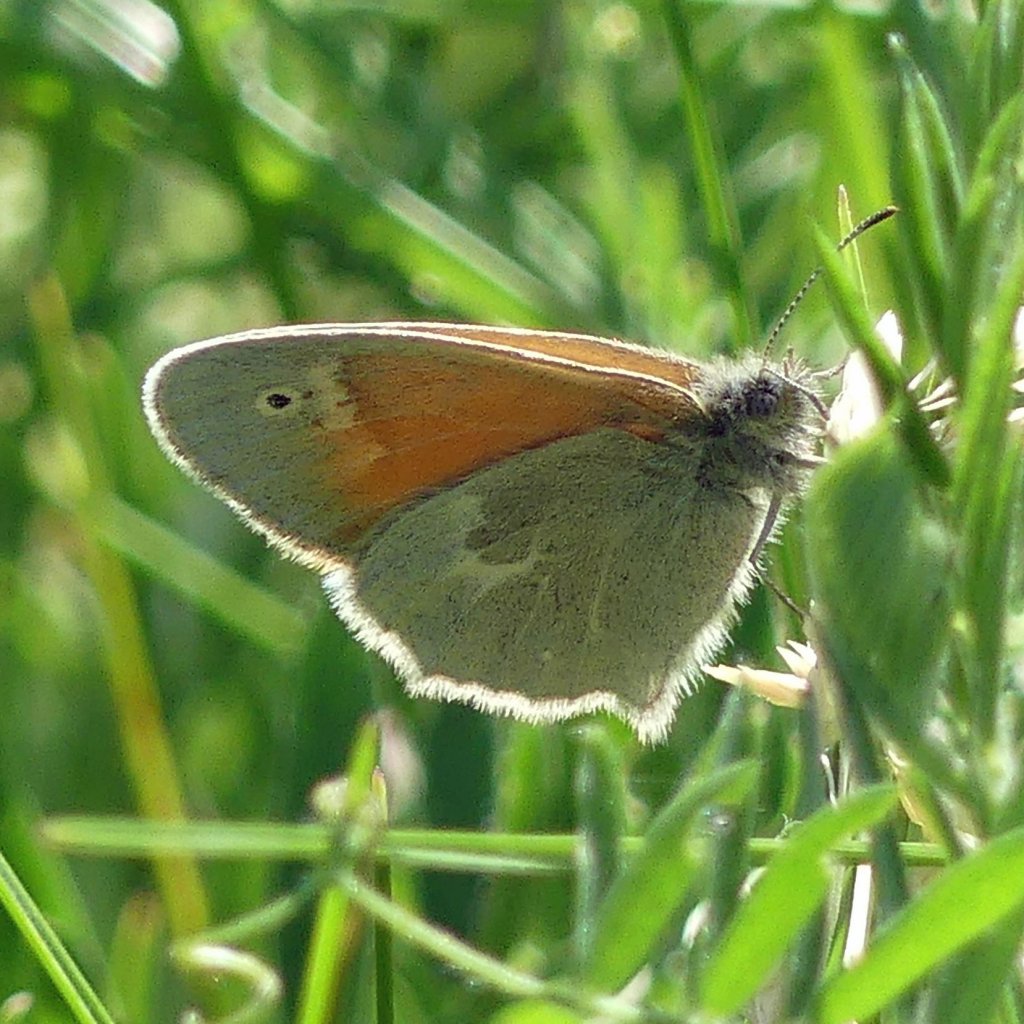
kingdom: Animalia
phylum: Arthropoda
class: Insecta
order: Lepidoptera
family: Nymphalidae
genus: Coenonympha
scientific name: Coenonympha tullia
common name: Large Heath
